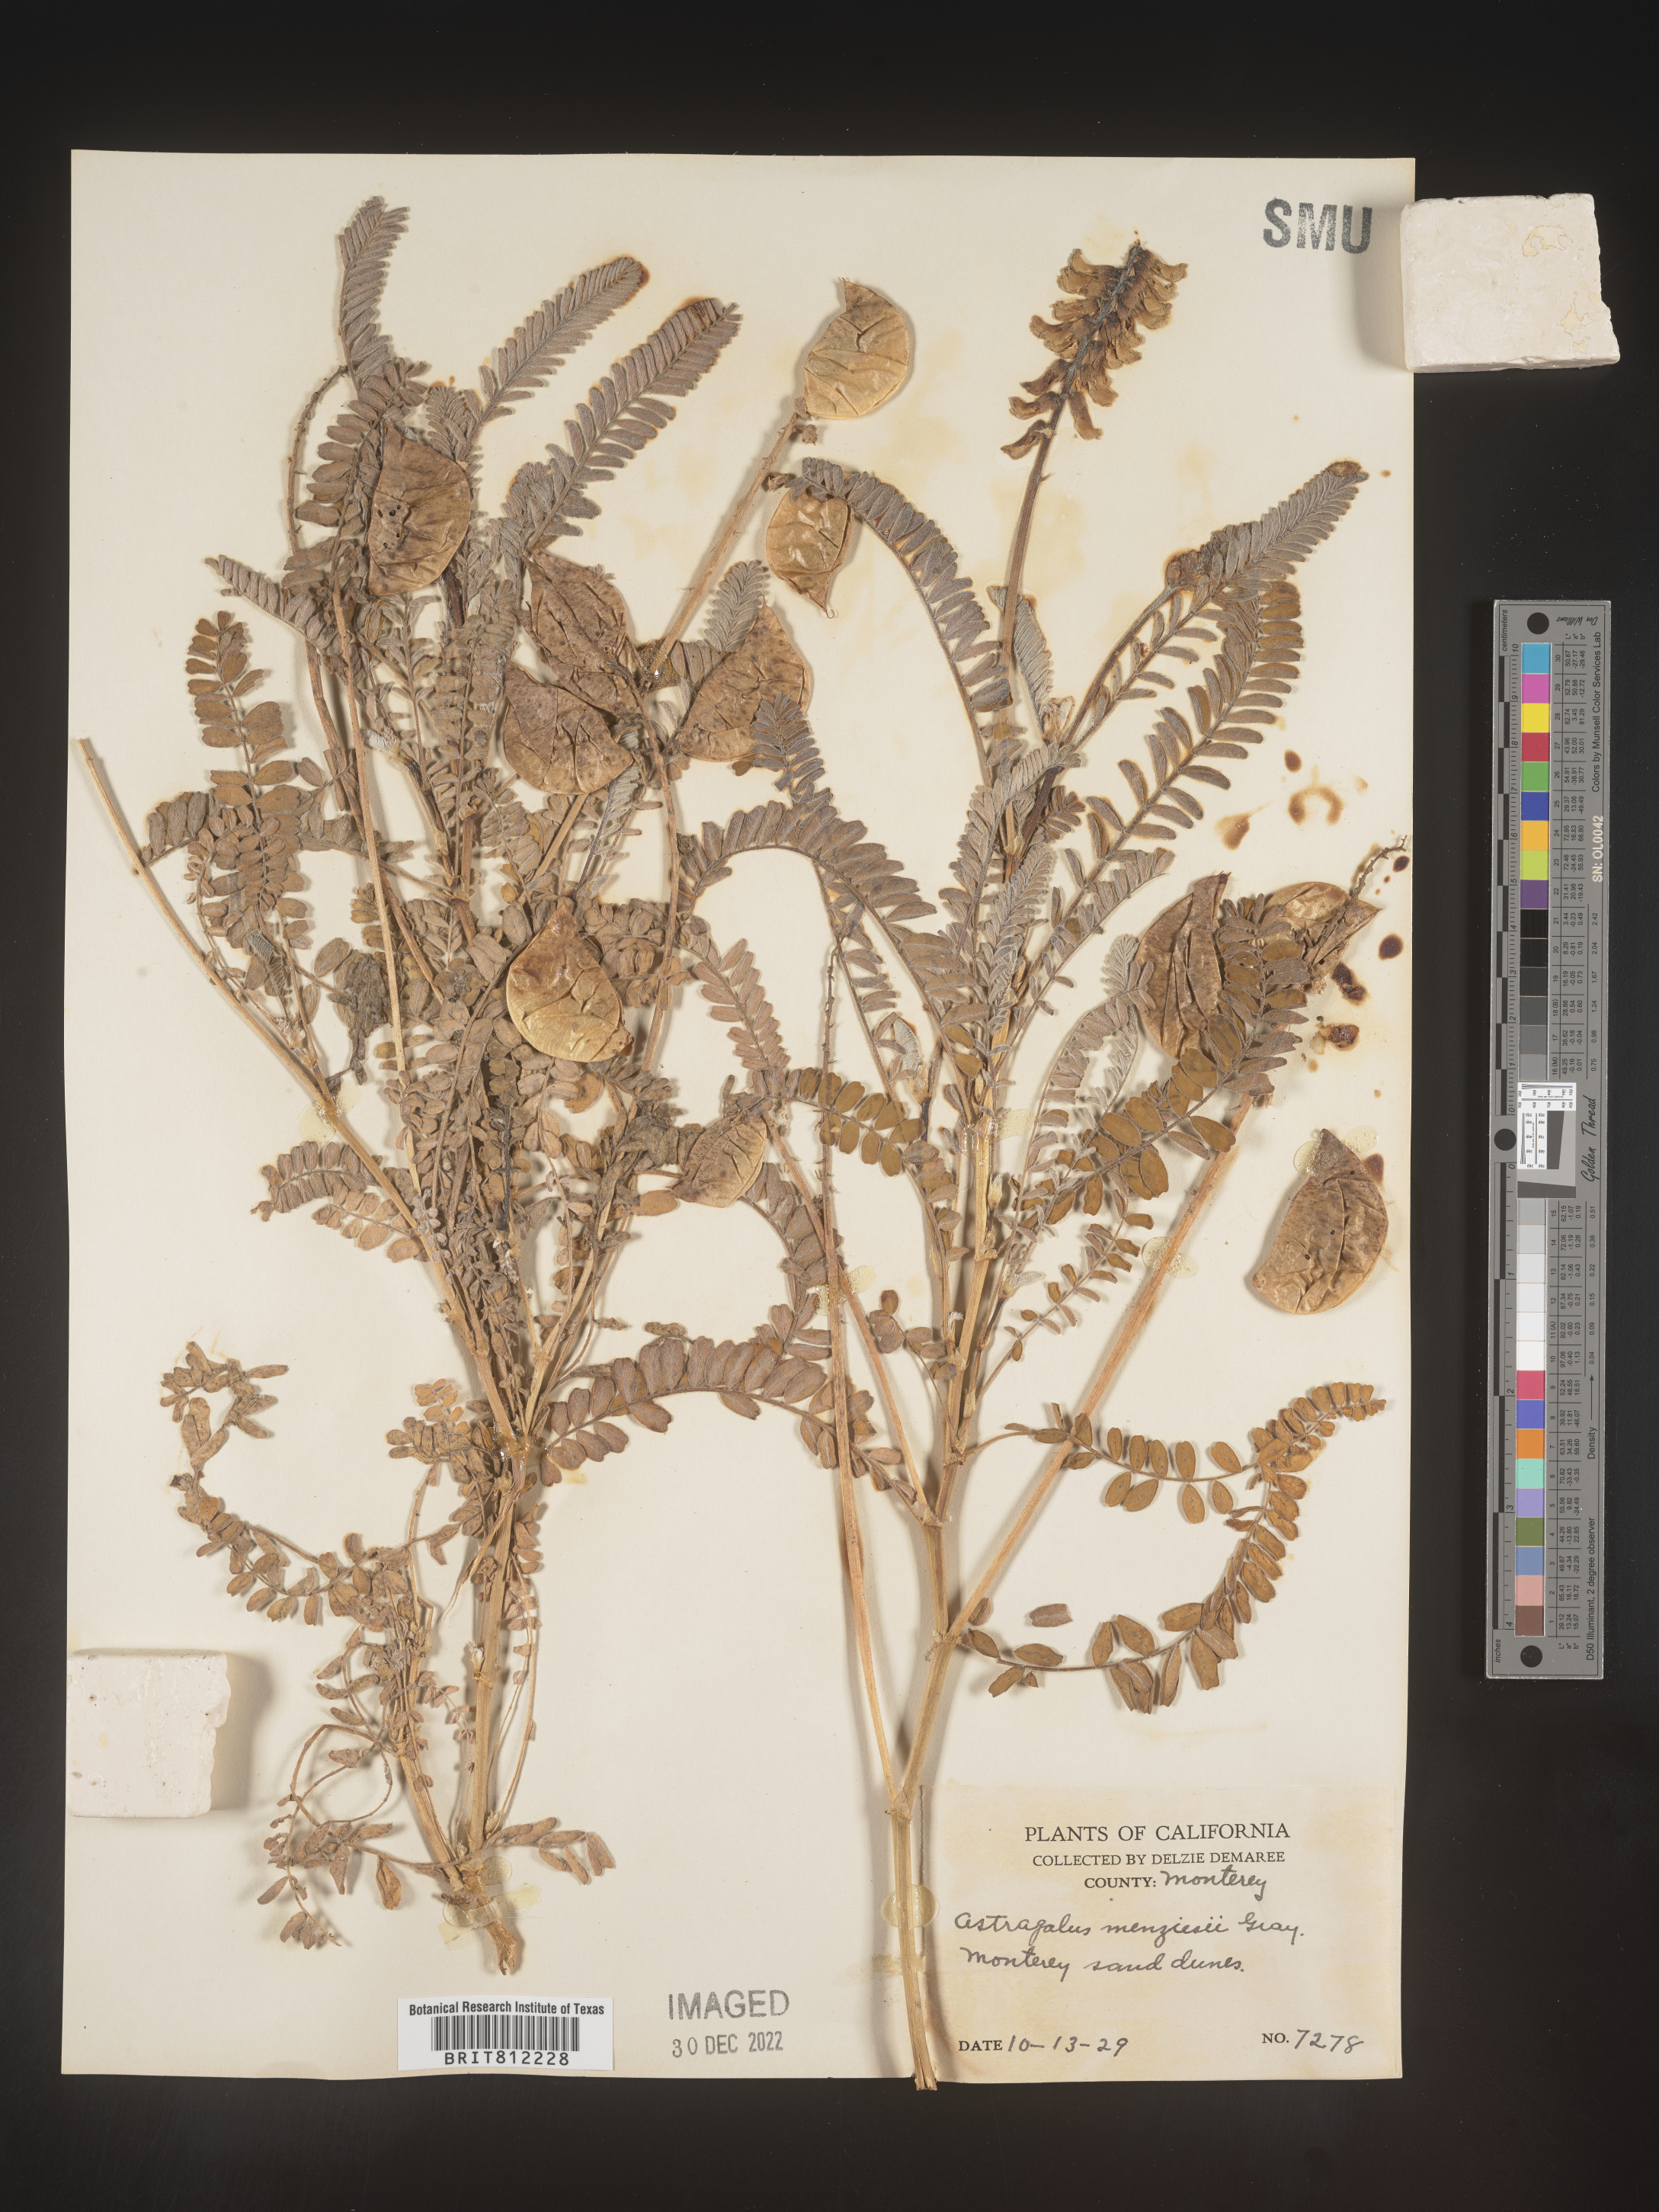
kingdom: Plantae
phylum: Tracheophyta
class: Magnoliopsida
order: Fabales
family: Fabaceae
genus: Astragalus
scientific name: Astragalus
